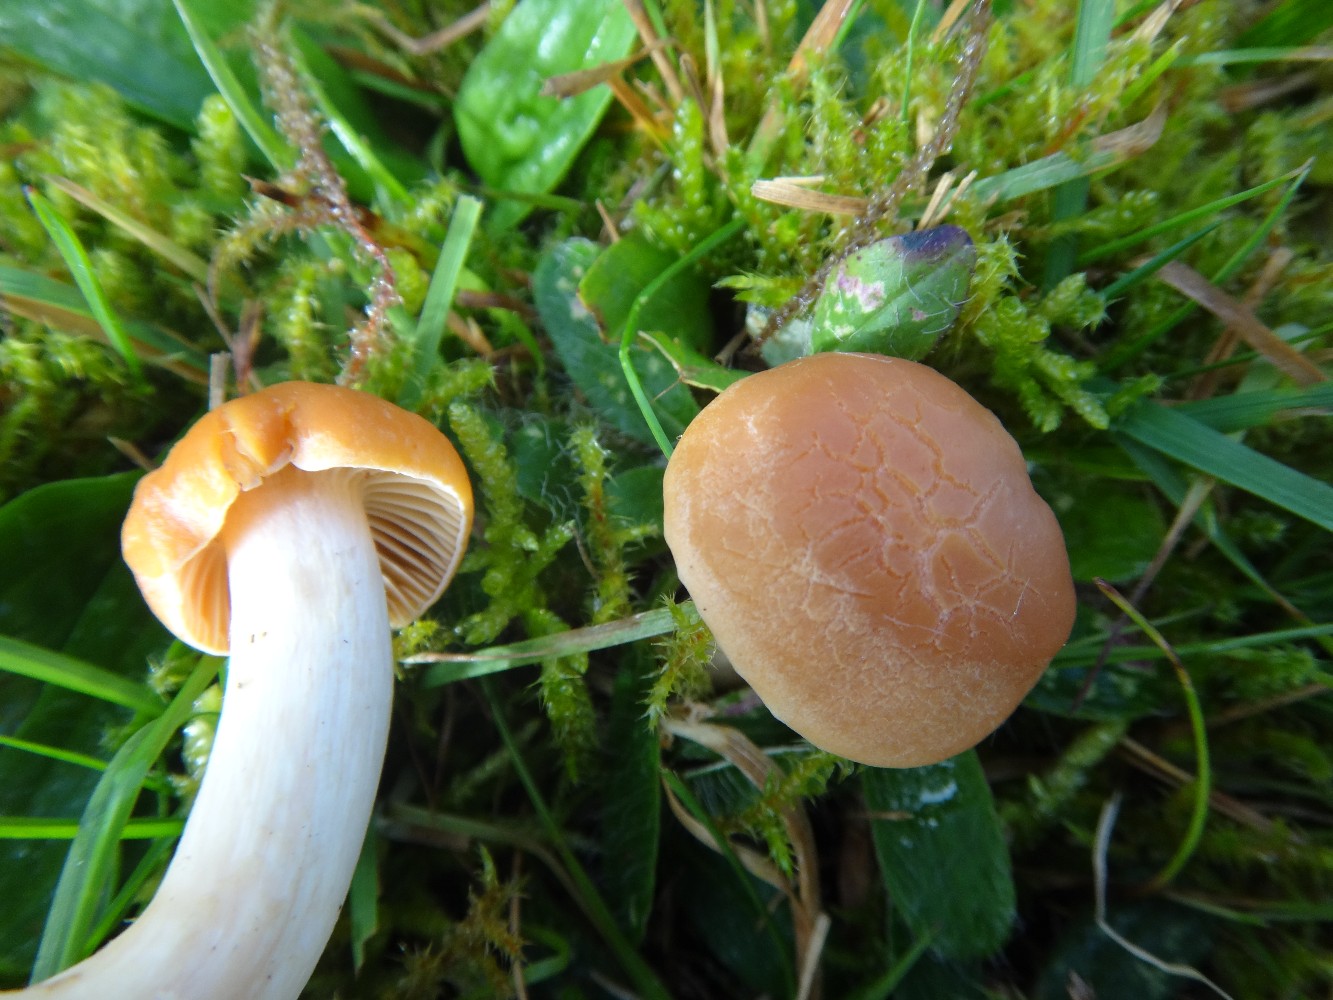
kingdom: Fungi
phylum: Basidiomycota
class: Agaricomycetes
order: Agaricales
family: Hygrophoraceae
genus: Cuphophyllus
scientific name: Cuphophyllus pratensis
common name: eng-vokshat
